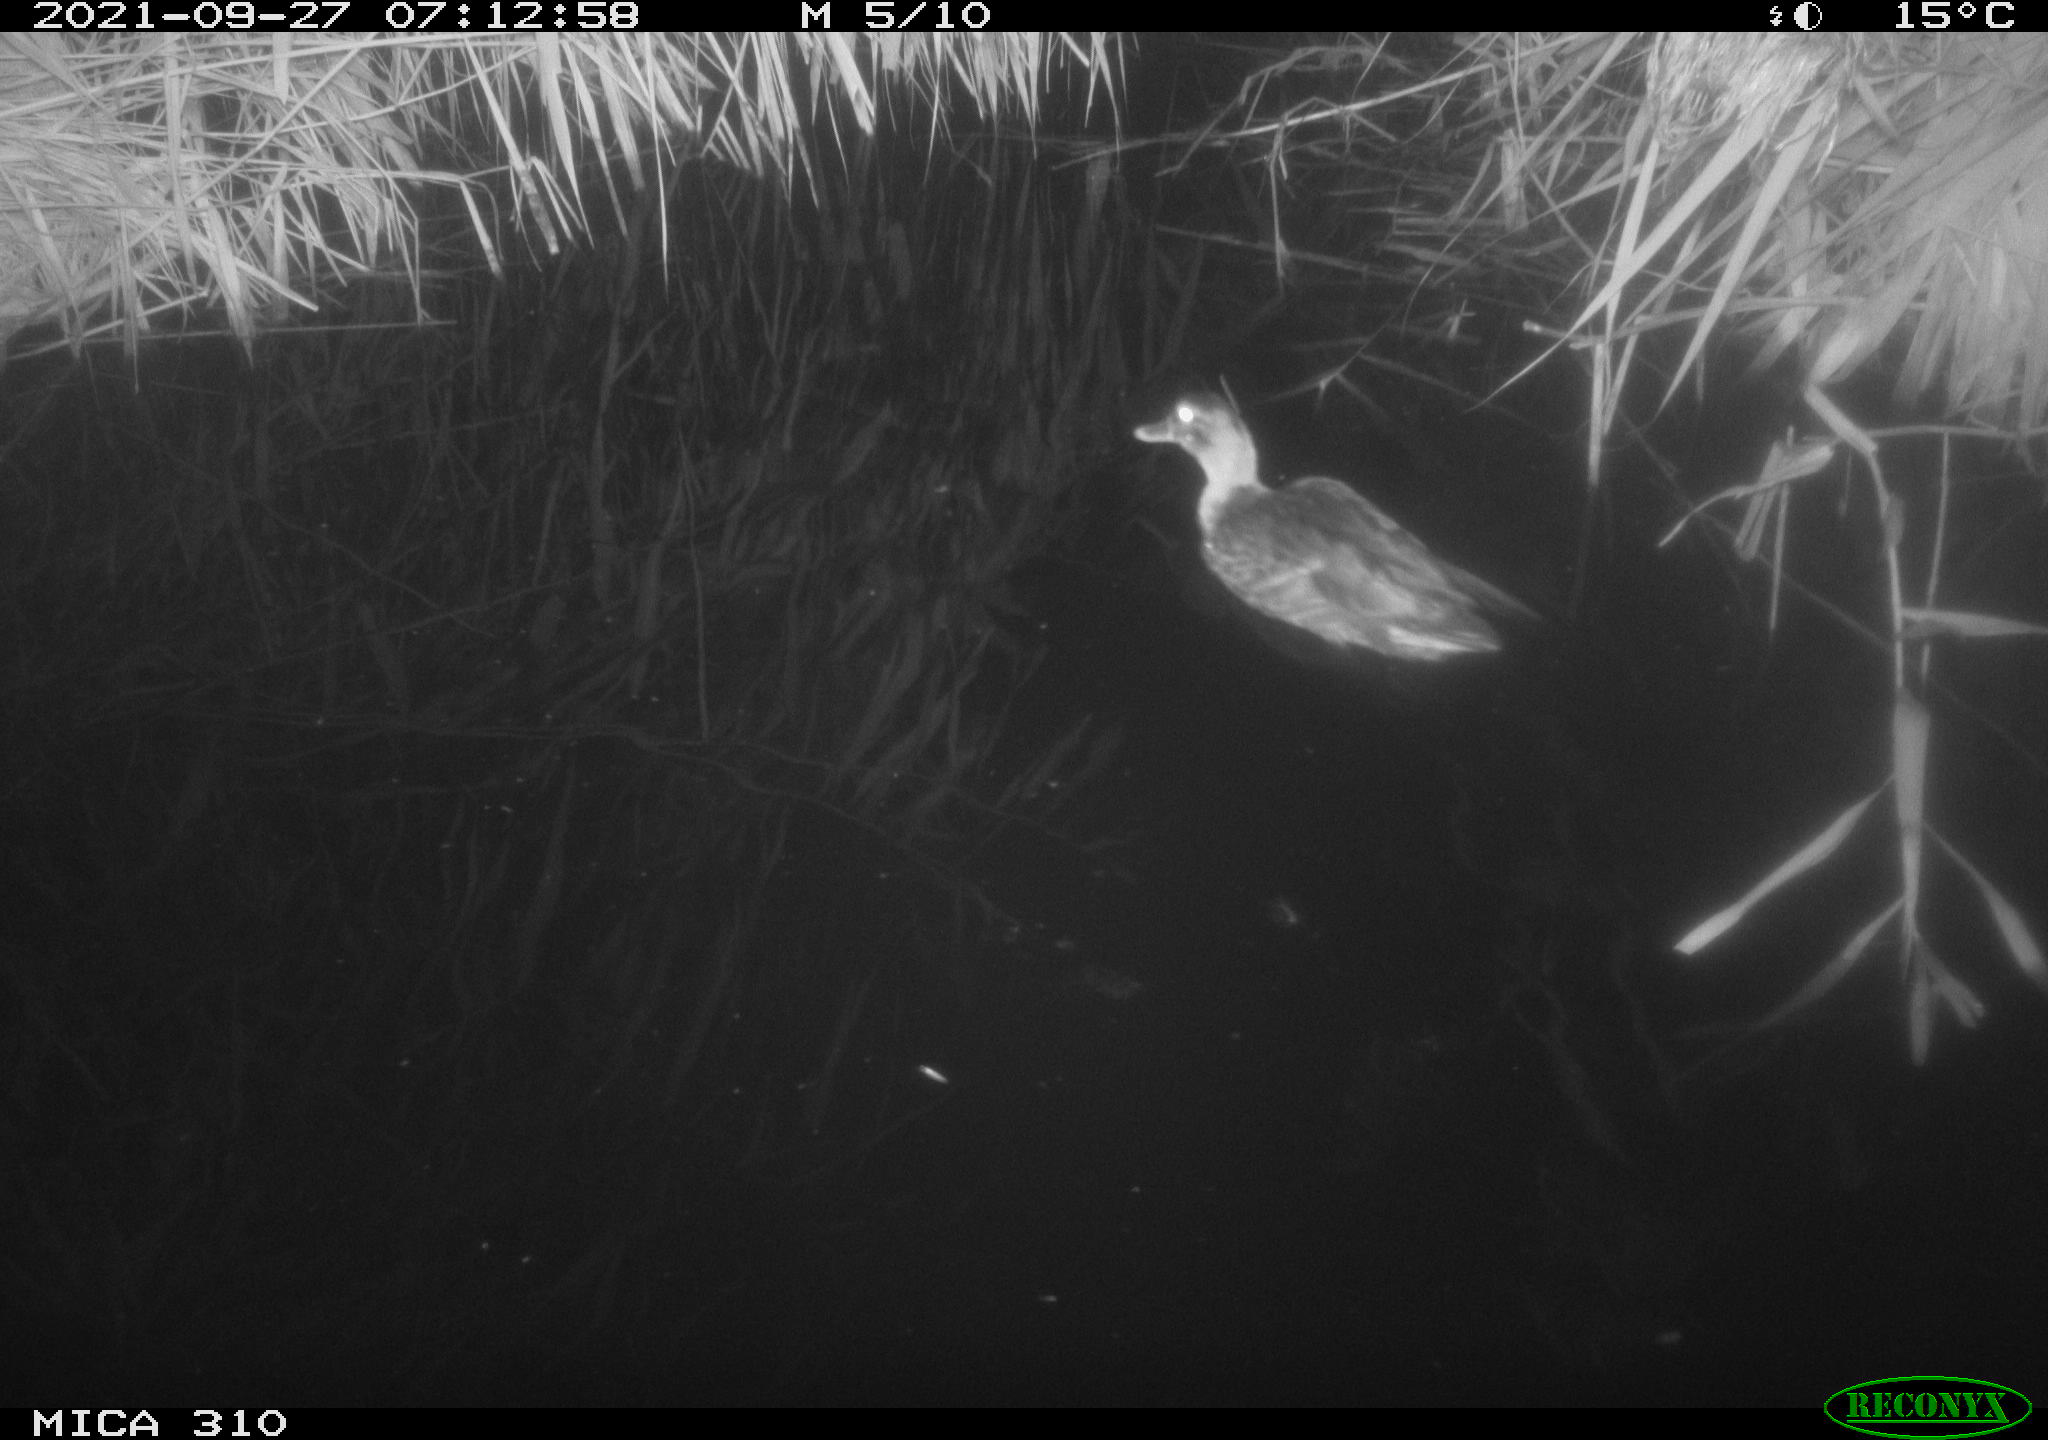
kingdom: Animalia
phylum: Chordata
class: Aves
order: Anseriformes
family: Anatidae
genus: Mareca
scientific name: Mareca strepera
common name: Gadwall
